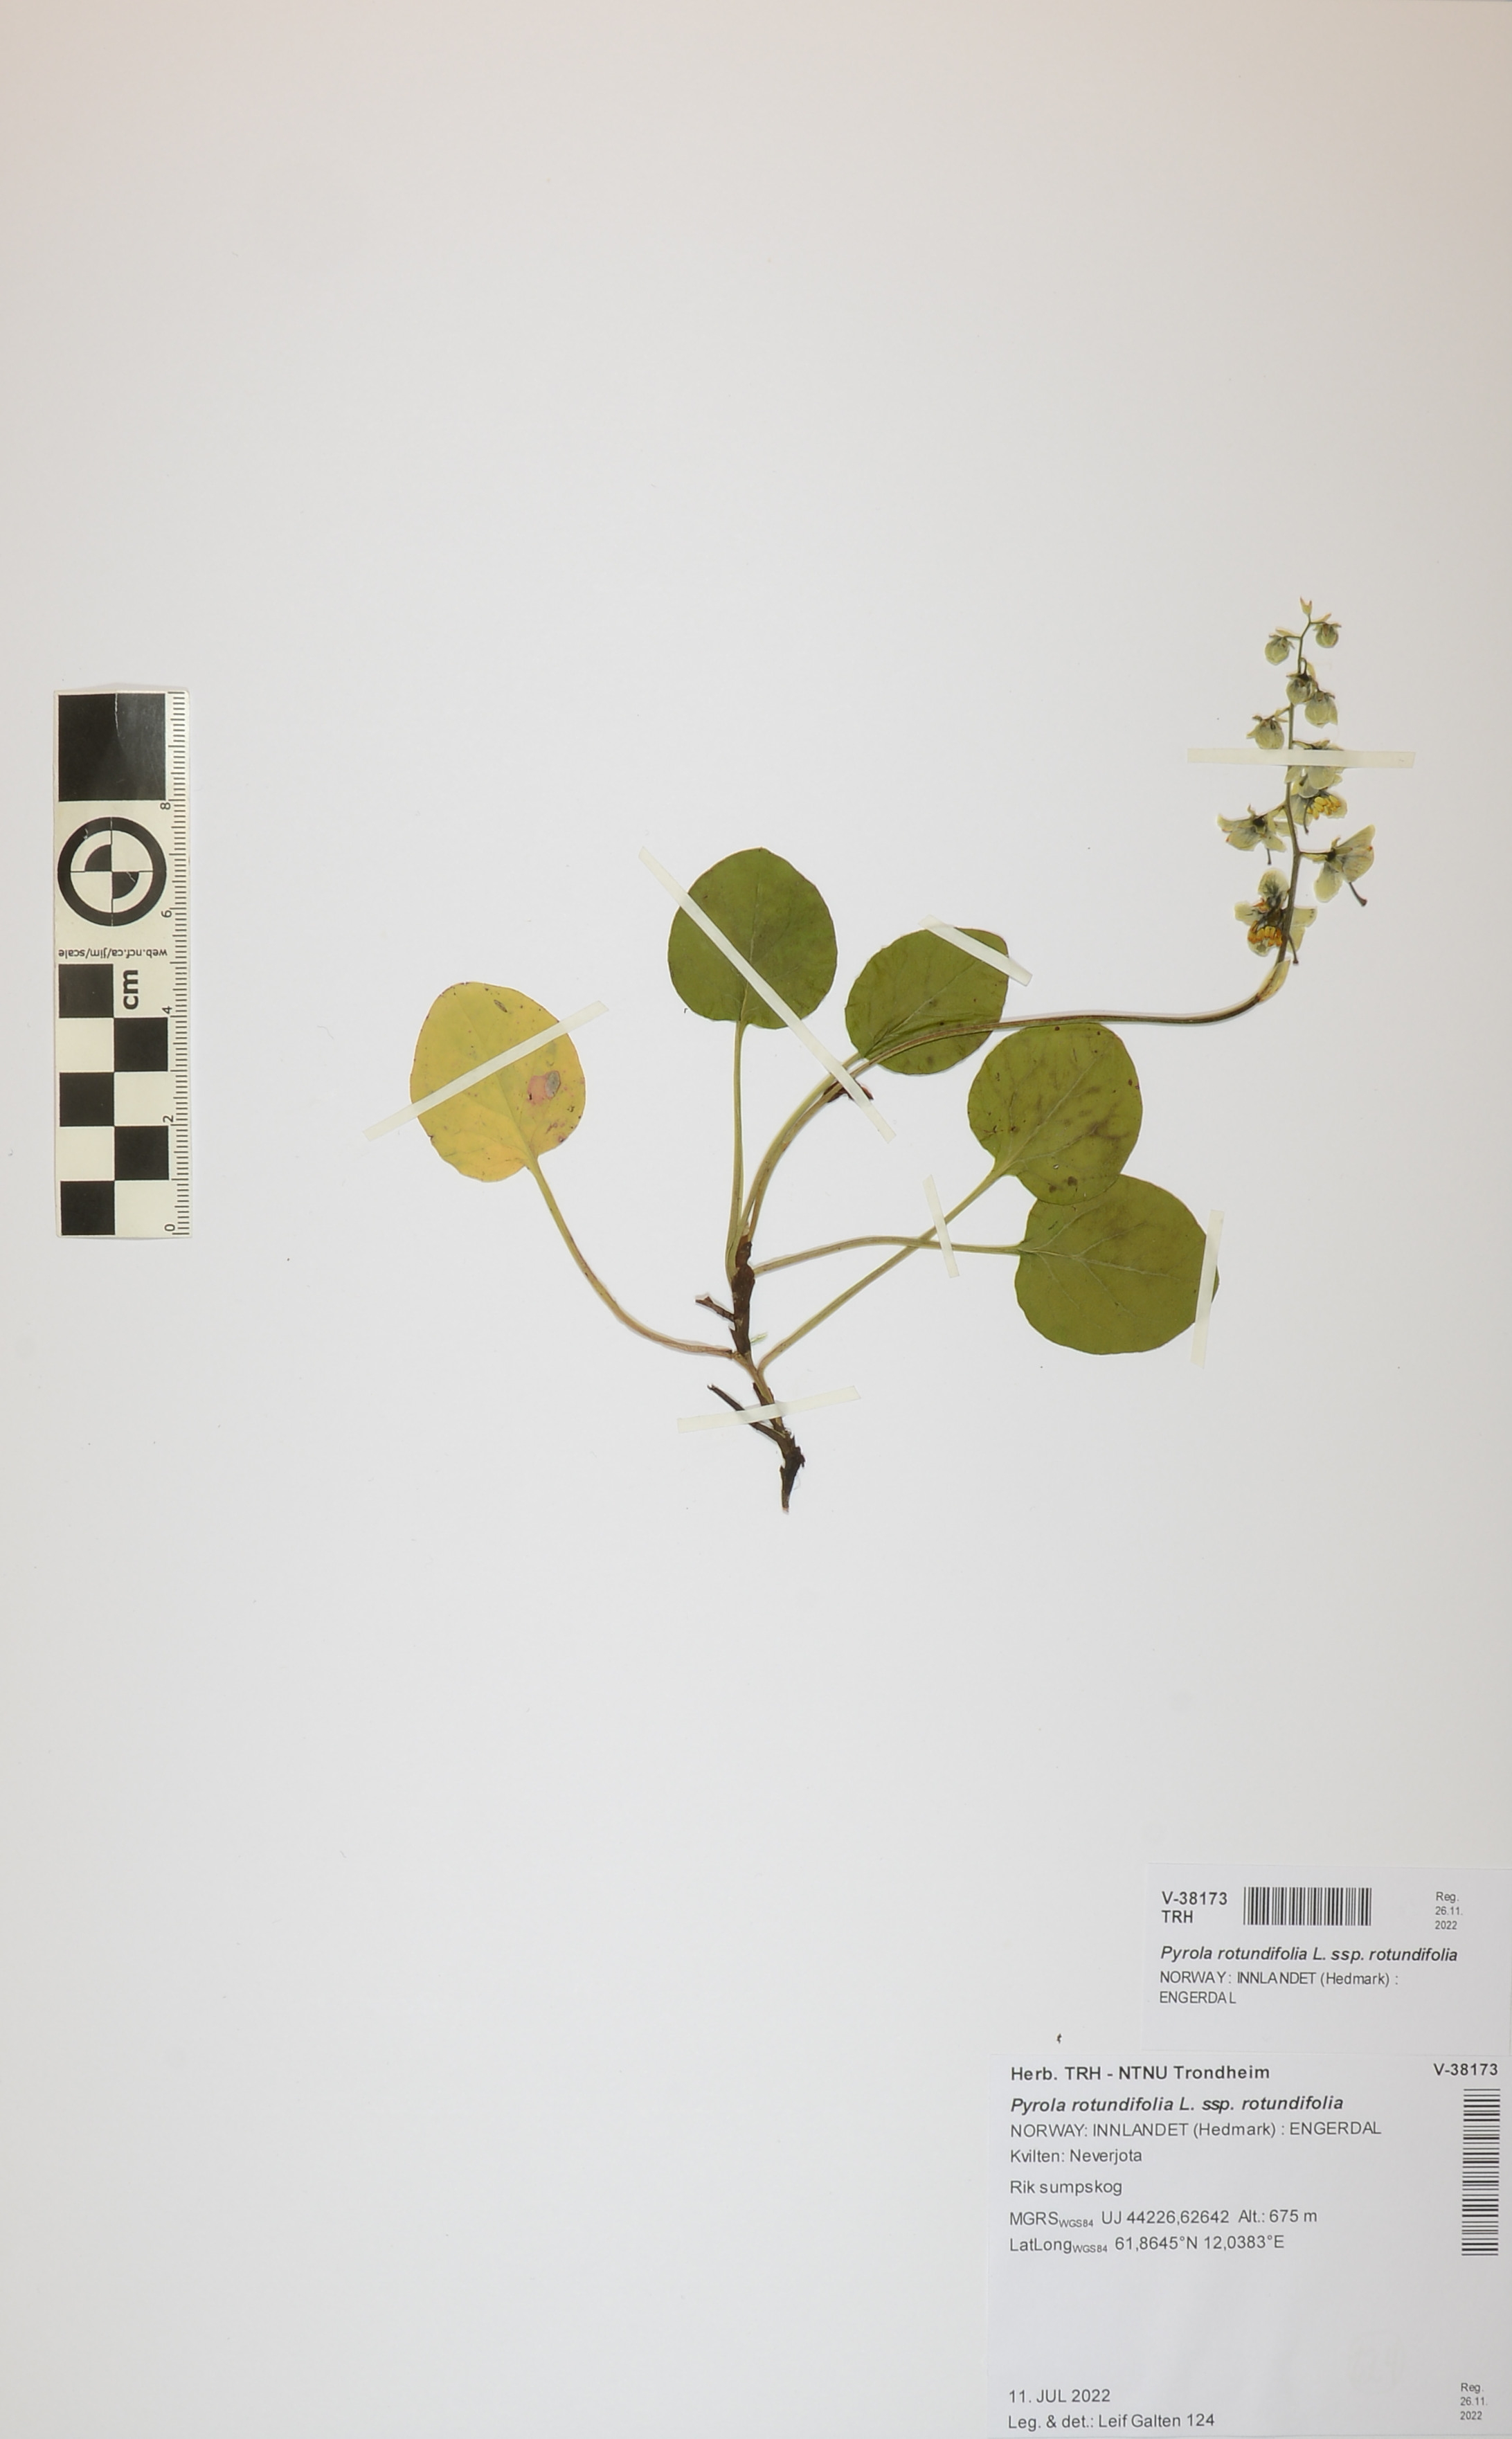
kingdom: Plantae
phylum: Tracheophyta
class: Magnoliopsida
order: Ericales
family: Ericaceae
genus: Pyrola
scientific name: Pyrola rotundifolia
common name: Round-leaved wintergreen
